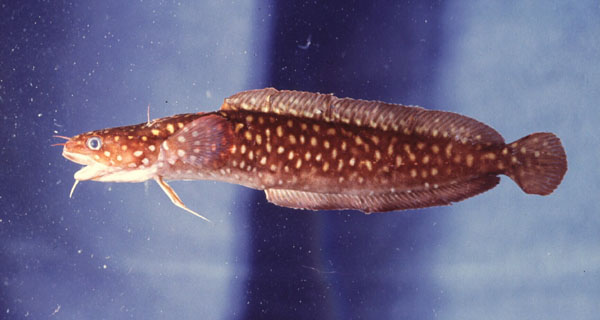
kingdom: Animalia
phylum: Chordata
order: Gadiformes
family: Lotidae
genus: Gaidropsarus
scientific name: Gaidropsarus guttatus
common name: Spotted rockling
